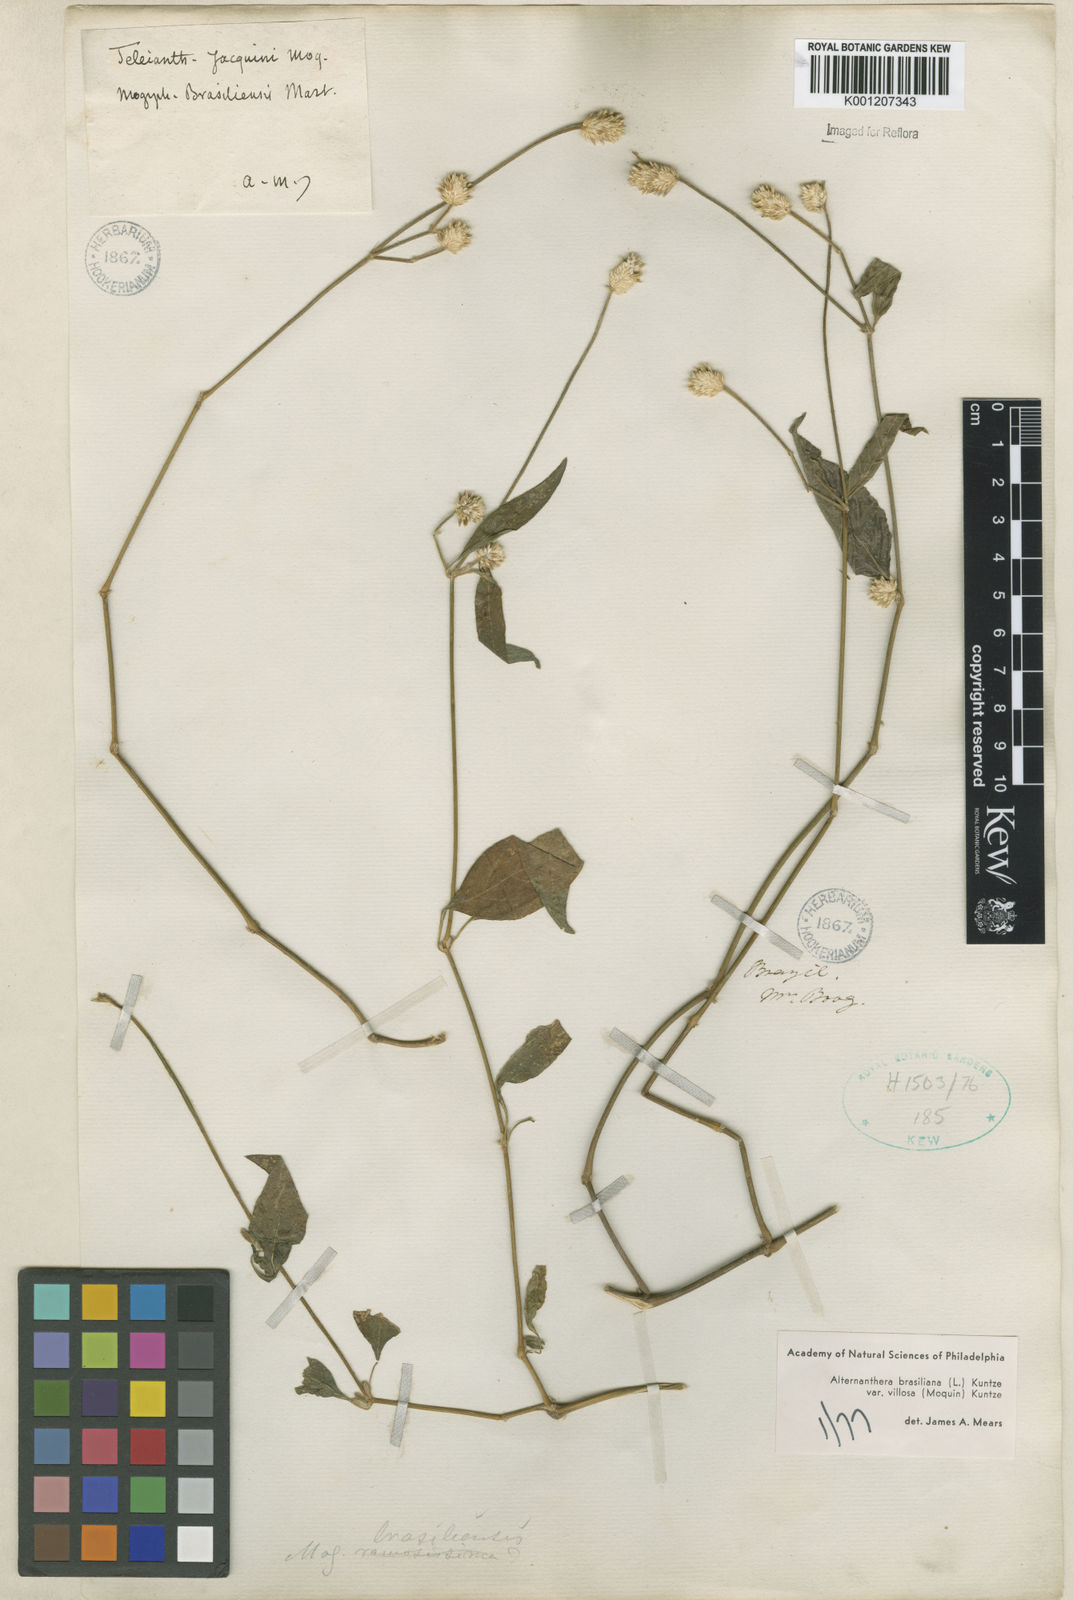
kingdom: Plantae
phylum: Tracheophyta
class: Magnoliopsida
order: Caryophyllales
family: Amaranthaceae
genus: Alternanthera
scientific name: Alternanthera ramosissima
